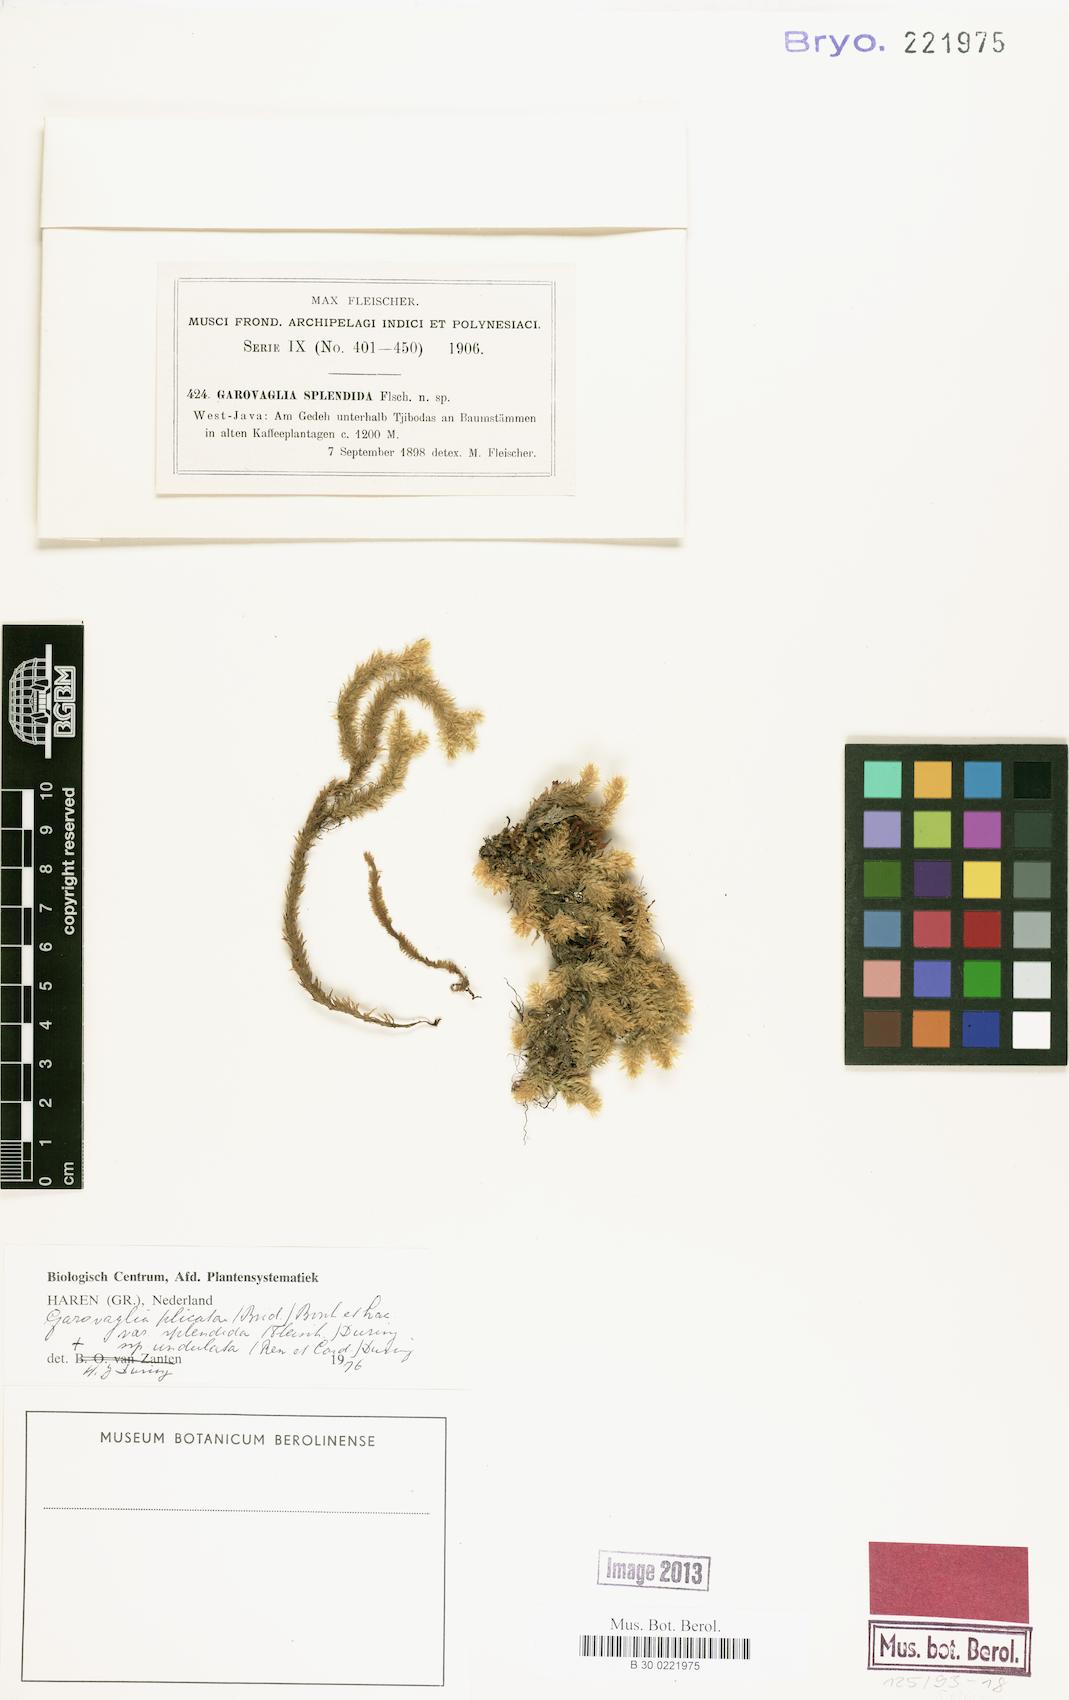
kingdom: Plantae
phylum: Bryophyta
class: Bryopsida
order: Ptychomniales
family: Ptychomniaceae
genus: Garovaglia
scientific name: Garovaglia plicata
